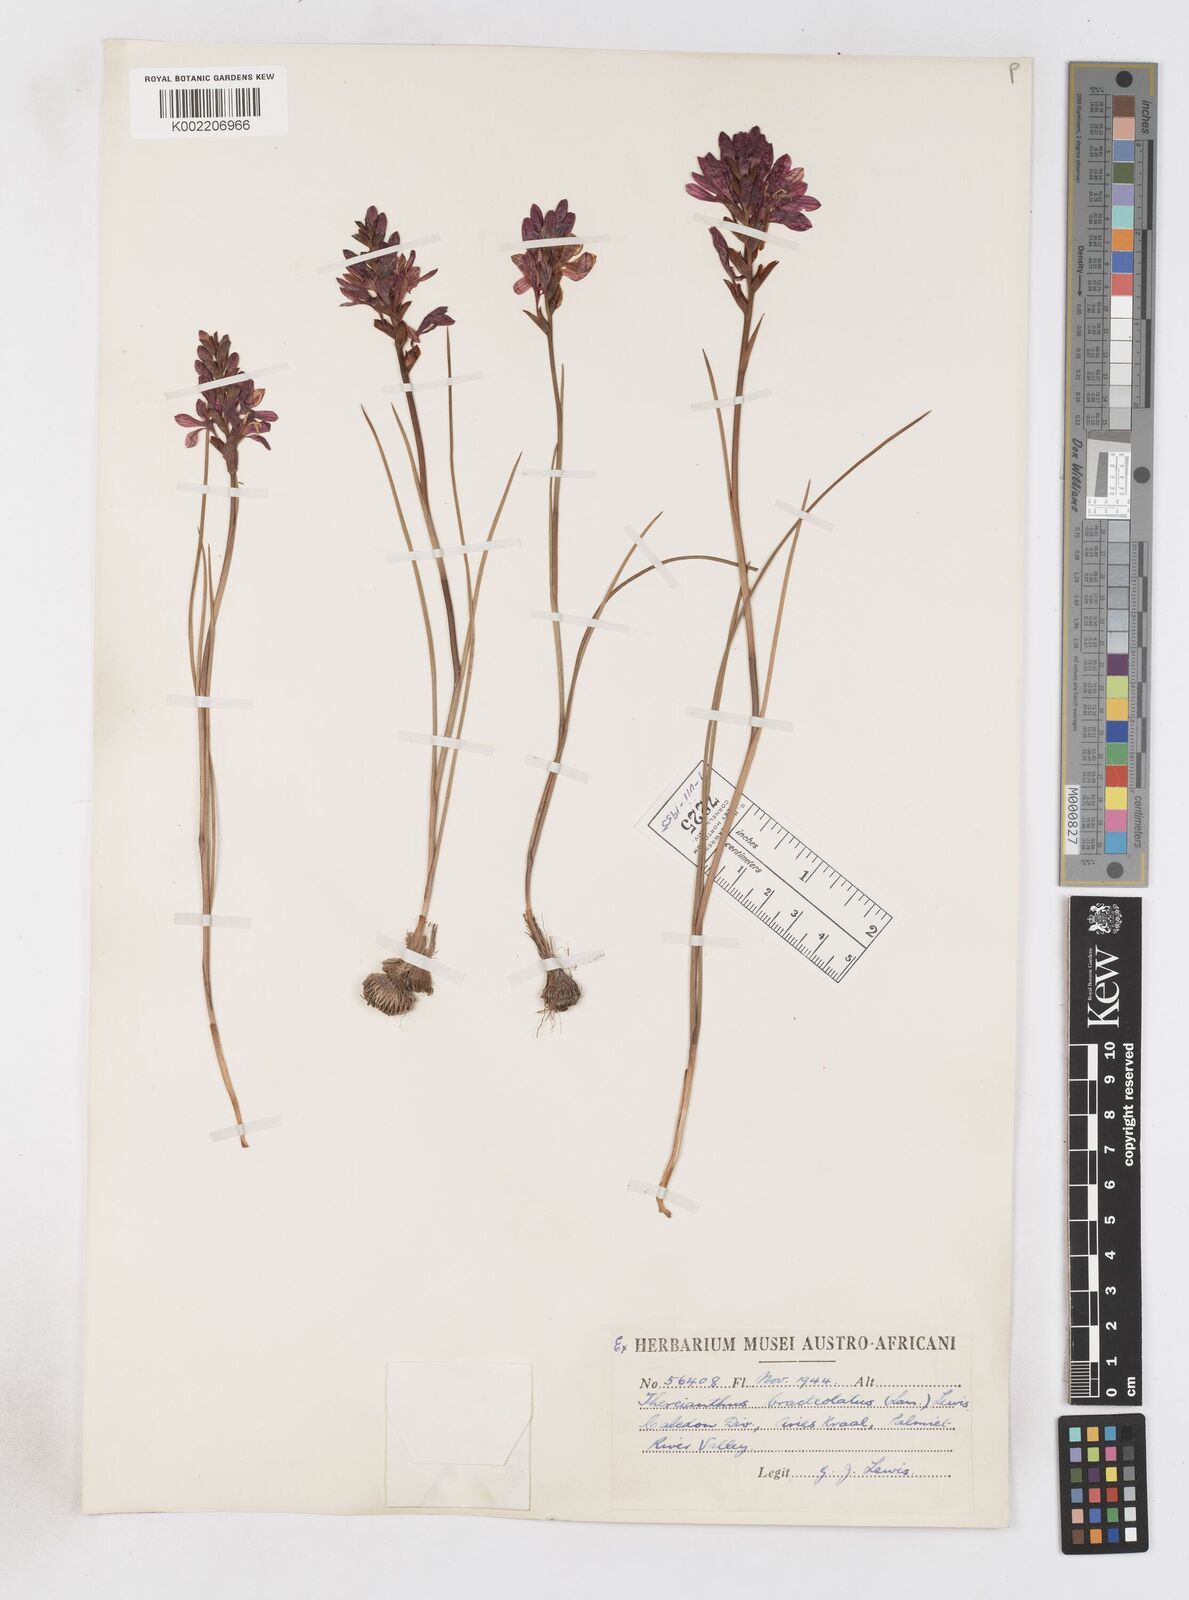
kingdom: Plantae
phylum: Tracheophyta
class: Liliopsida
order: Asparagales
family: Iridaceae
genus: Thereianthus
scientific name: Thereianthus bracteolatus
